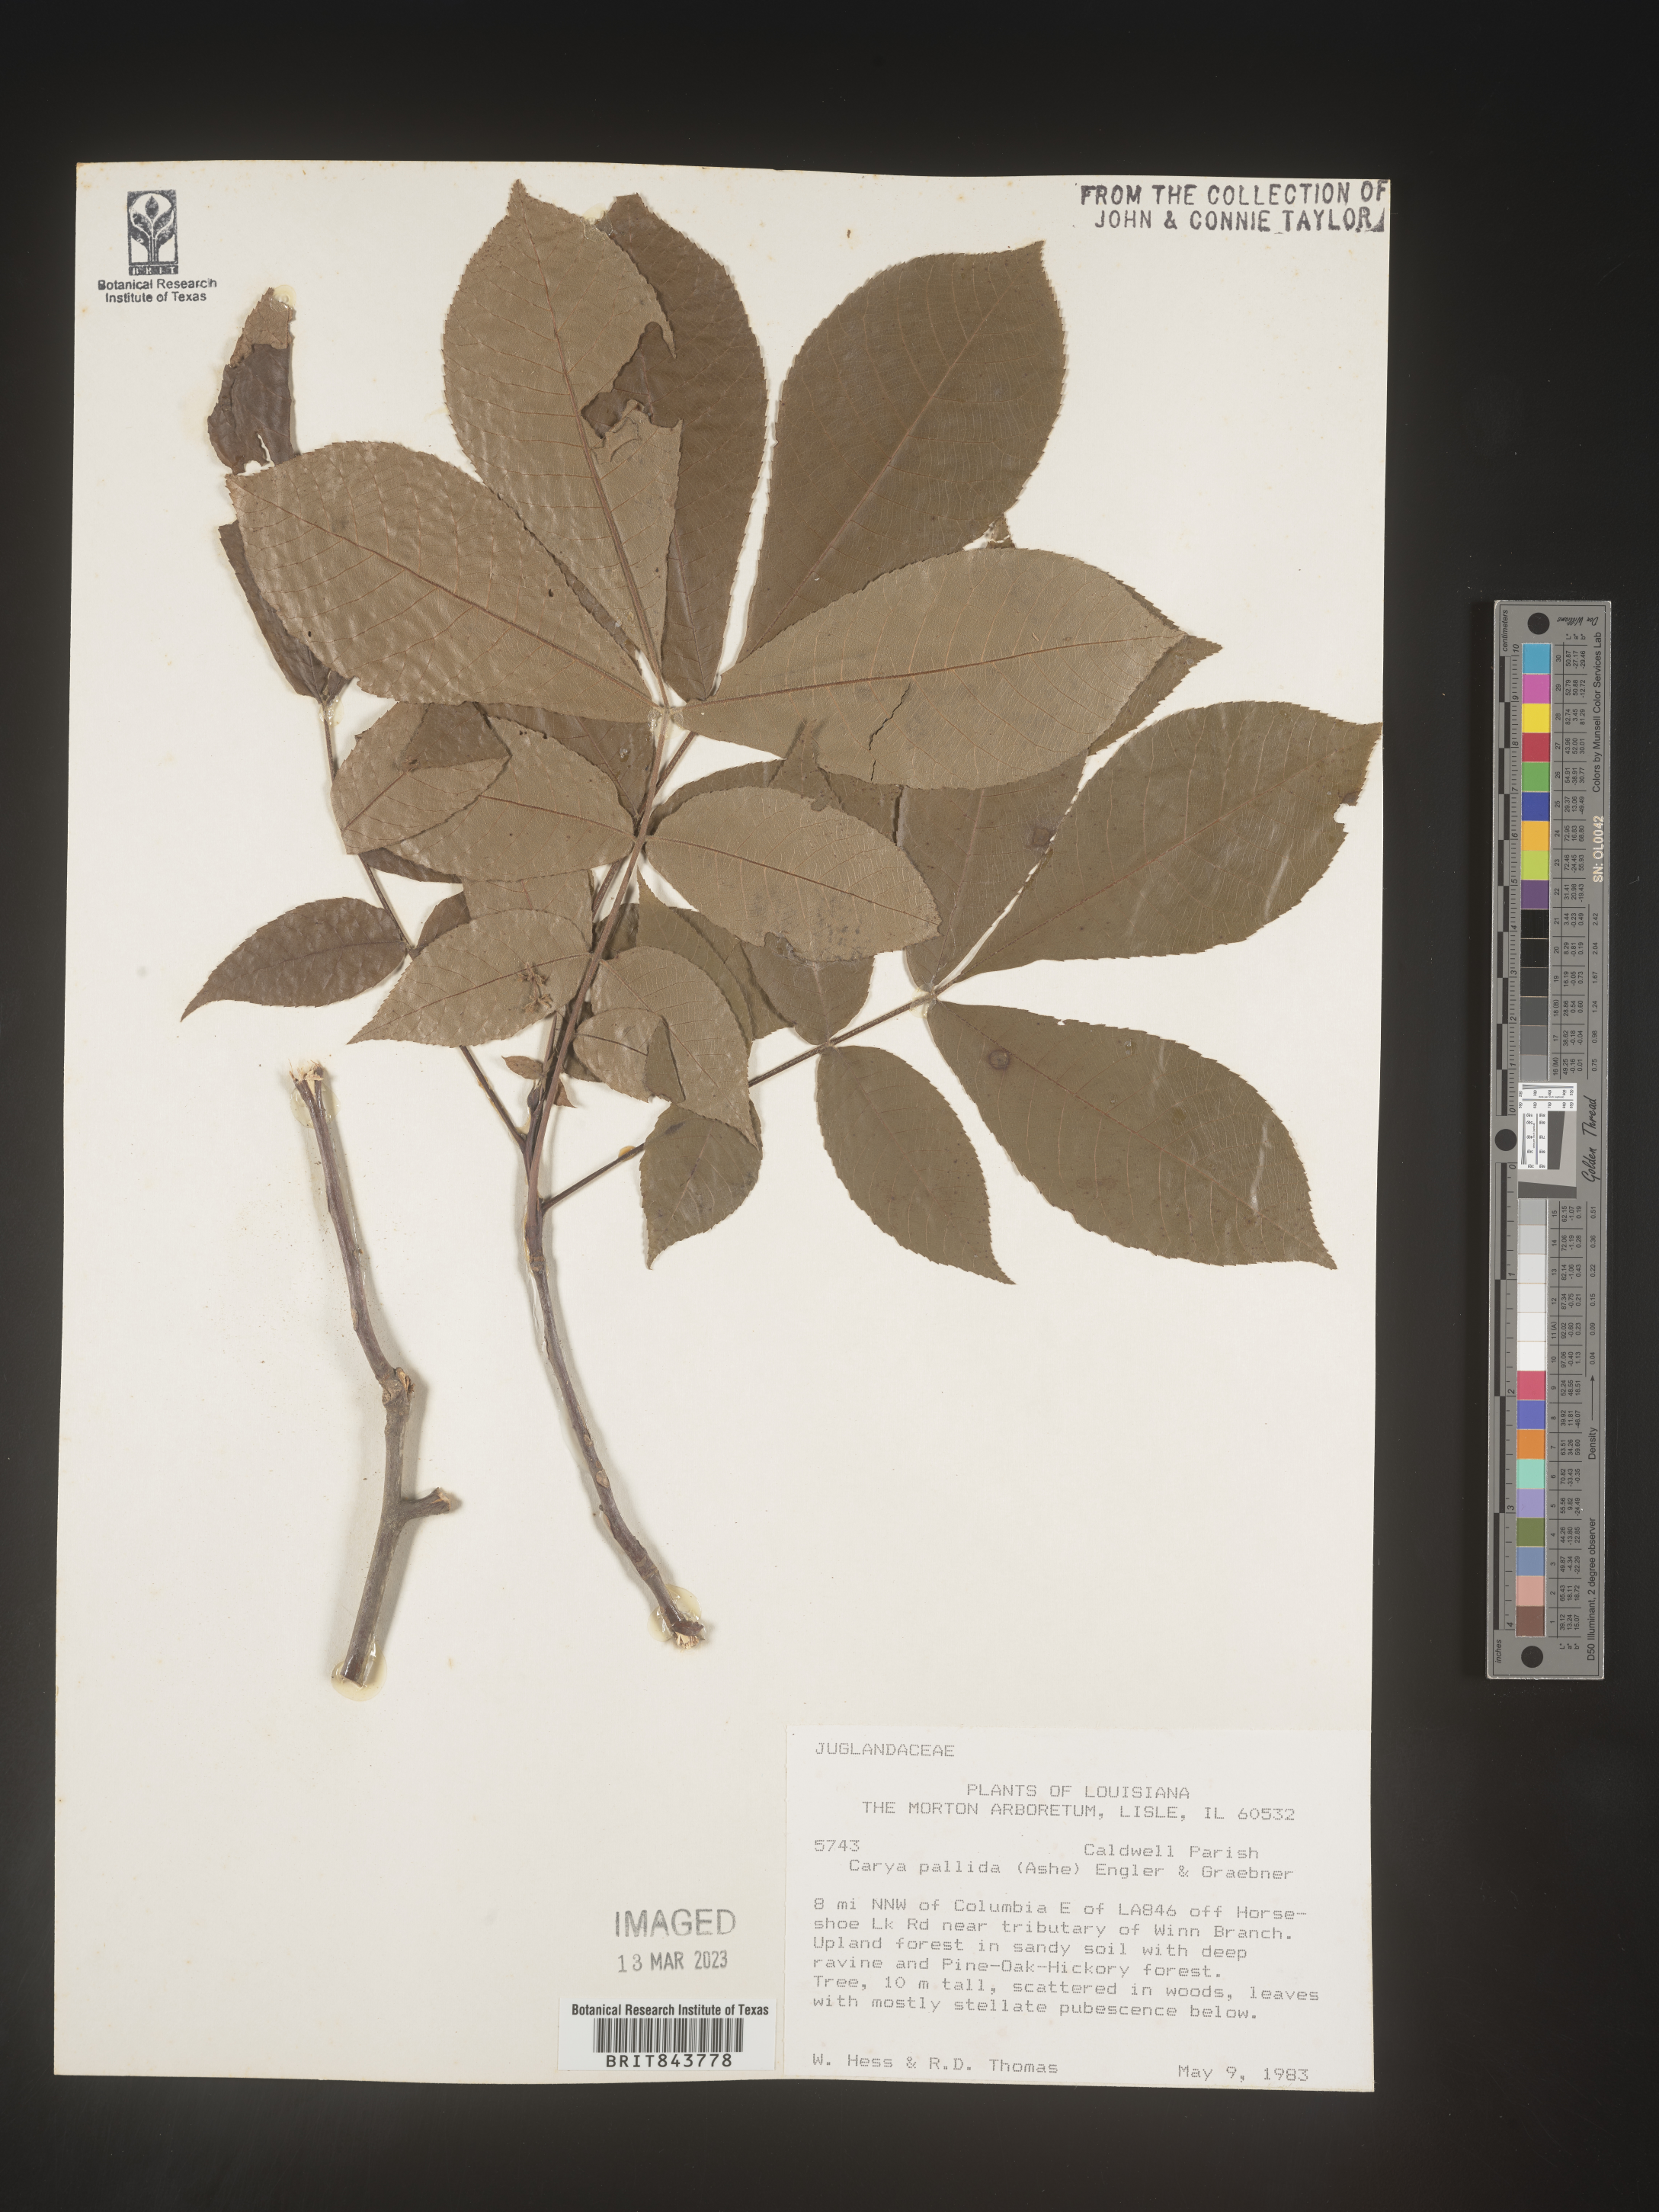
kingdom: Plantae
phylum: Tracheophyta
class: Magnoliopsida
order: Fagales
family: Juglandaceae
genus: Carya
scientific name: Carya pallida
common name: Sand hickory
